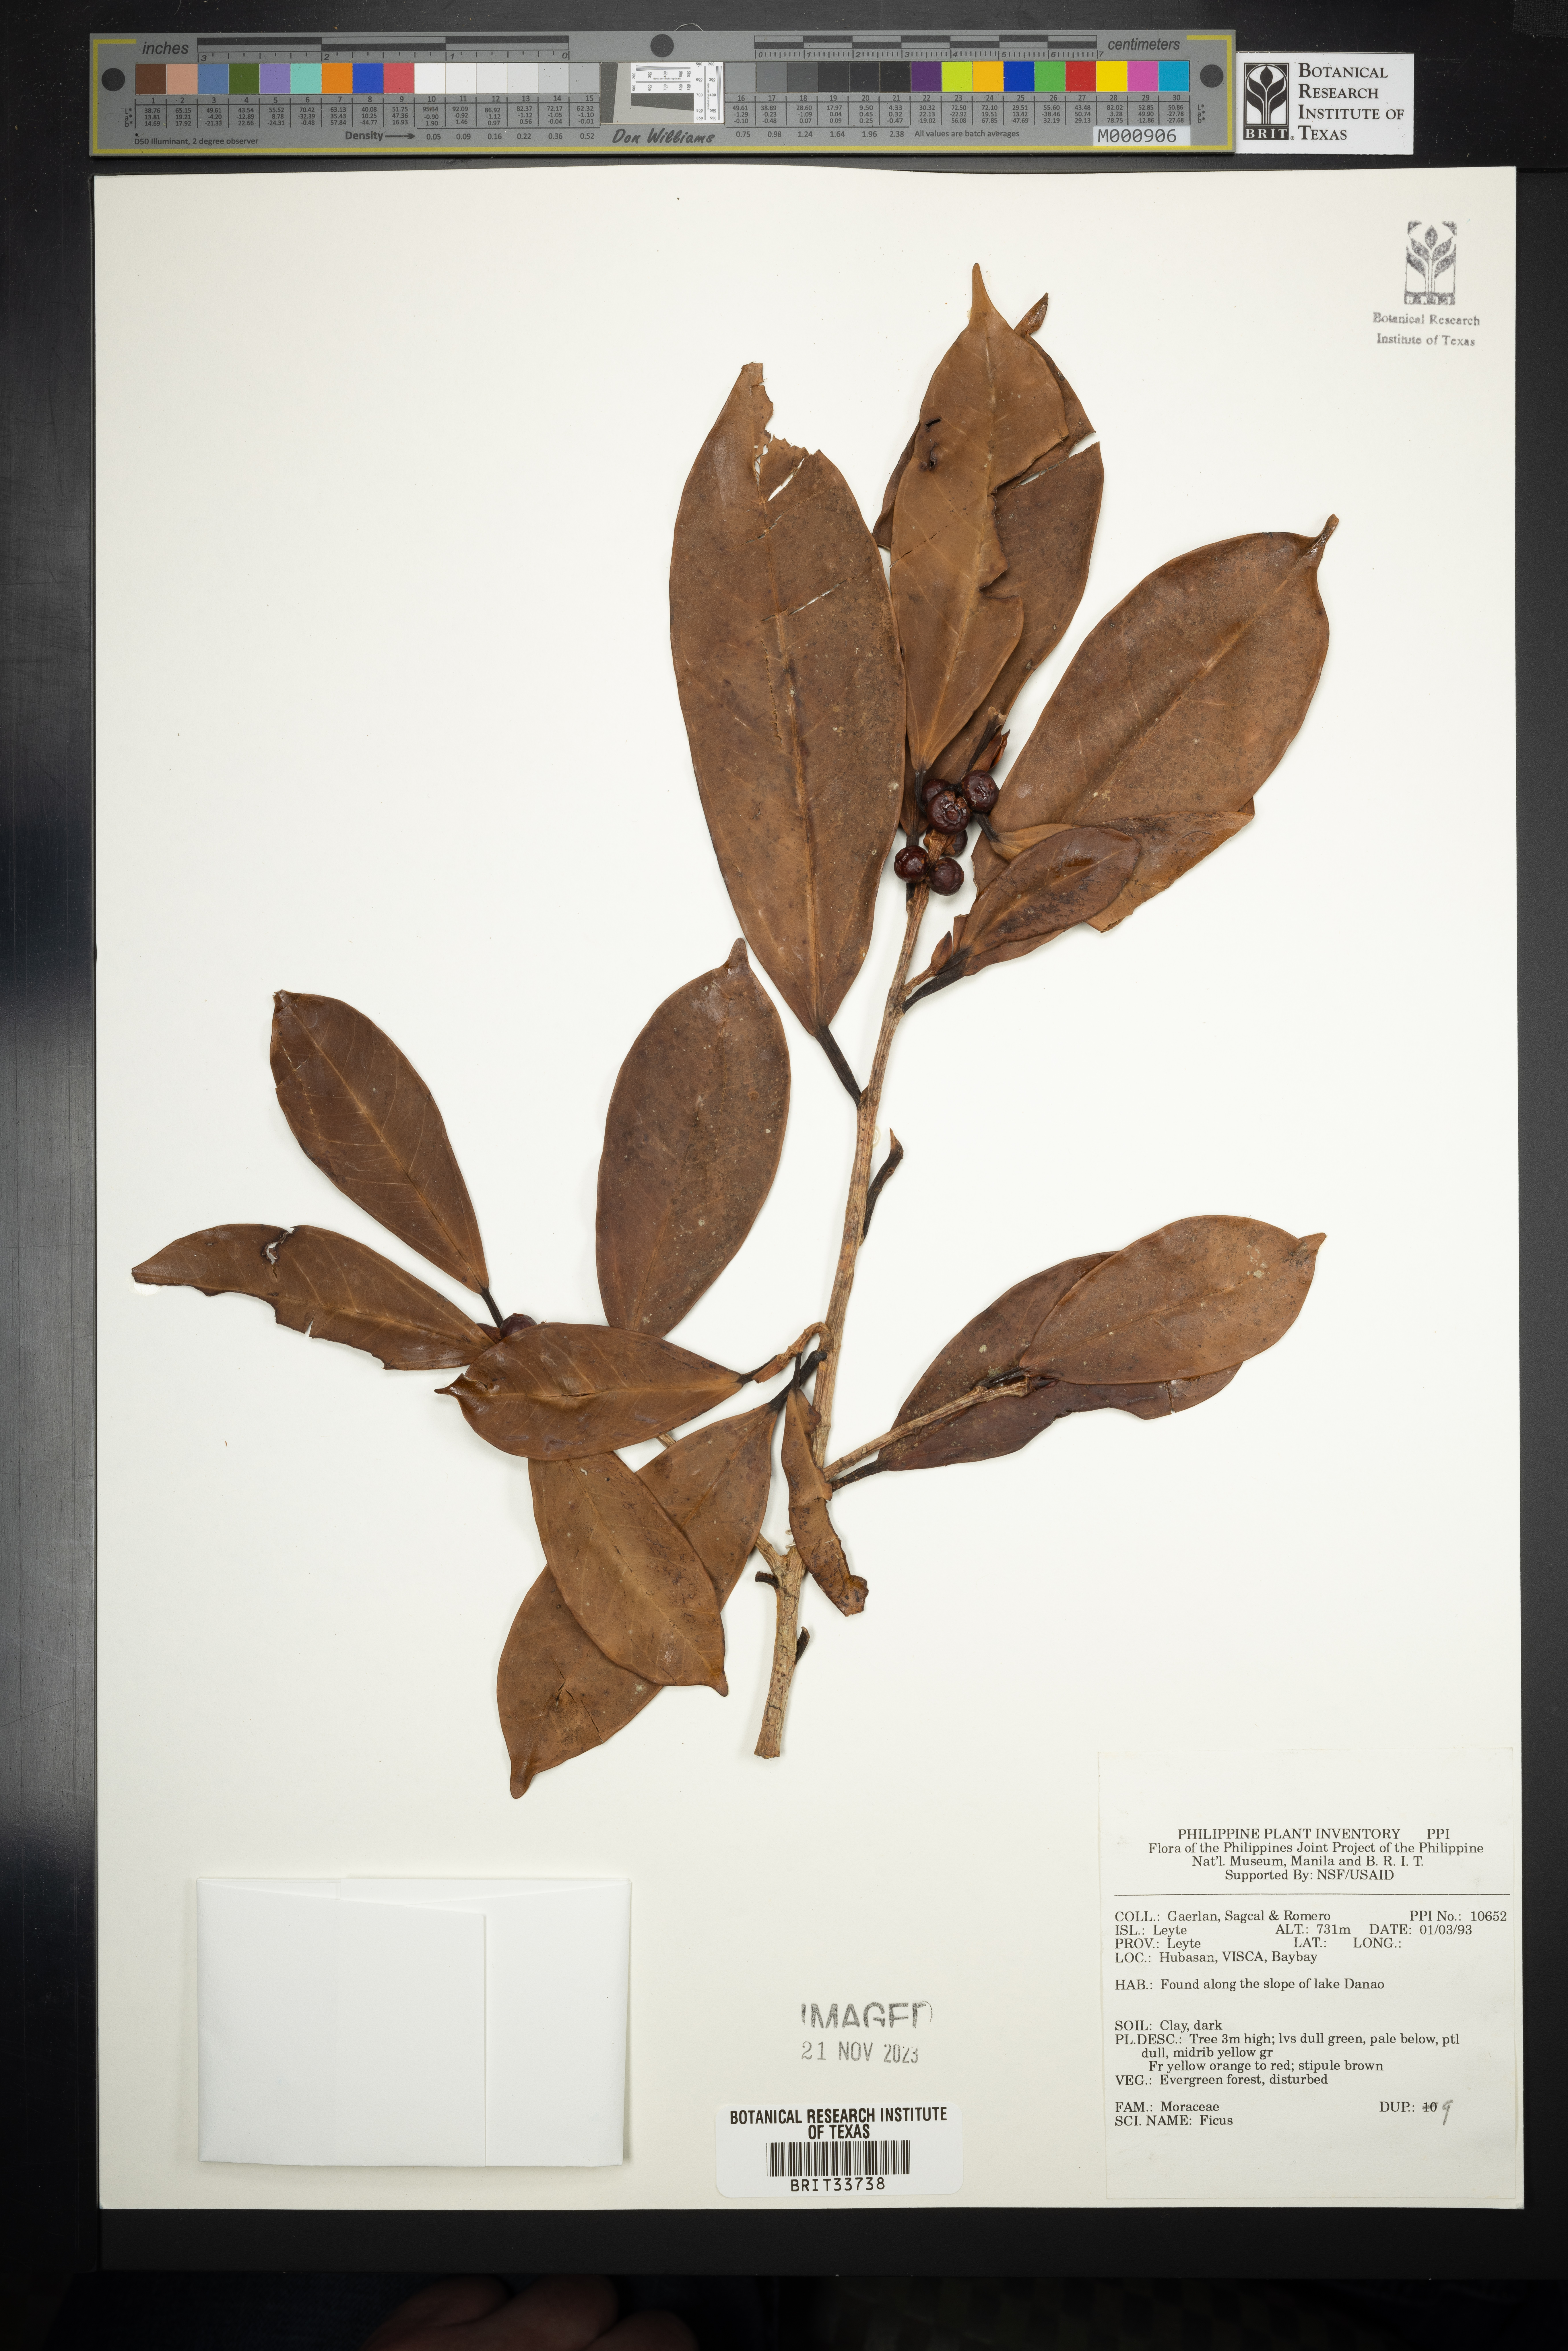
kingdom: Plantae
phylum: Tracheophyta
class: Magnoliopsida
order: Rosales
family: Moraceae
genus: Ficus
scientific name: Ficus
